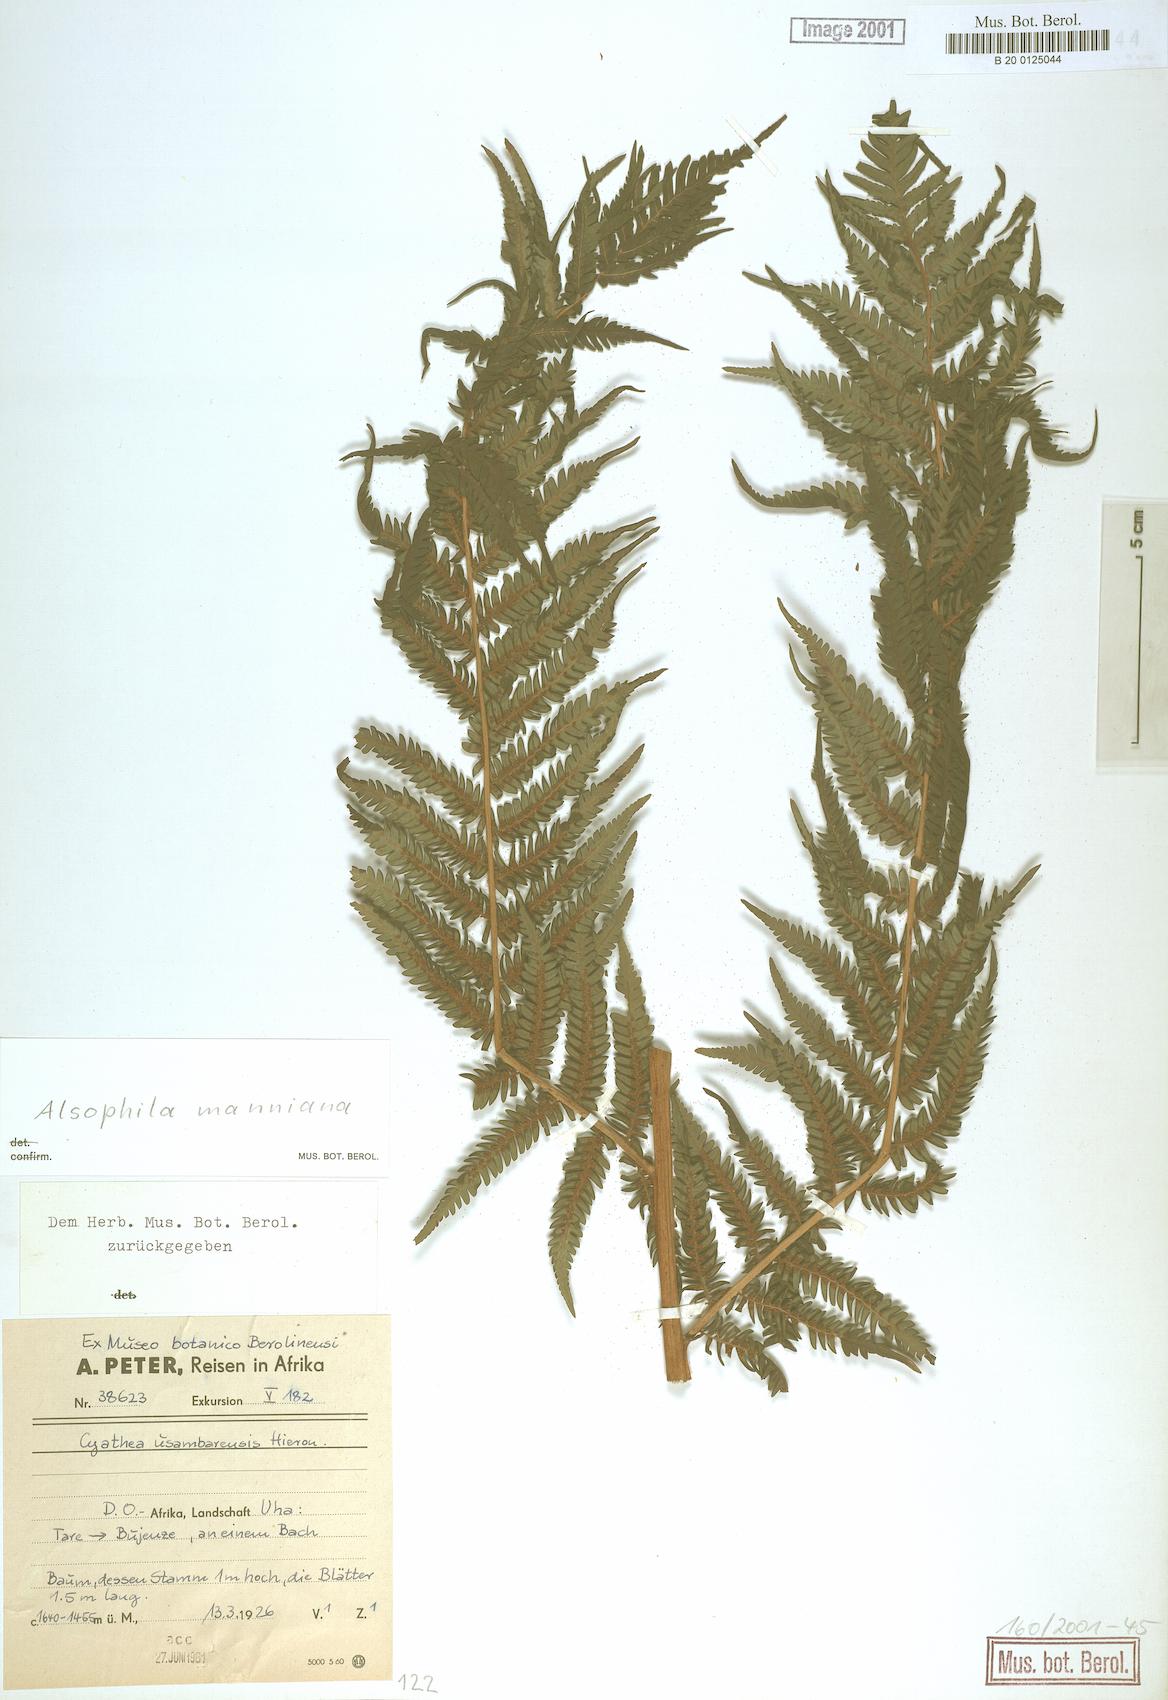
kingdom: Plantae
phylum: Tracheophyta
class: Polypodiopsida
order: Cyatheales
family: Cyatheaceae
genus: Alsophila
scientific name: Alsophila manniana
